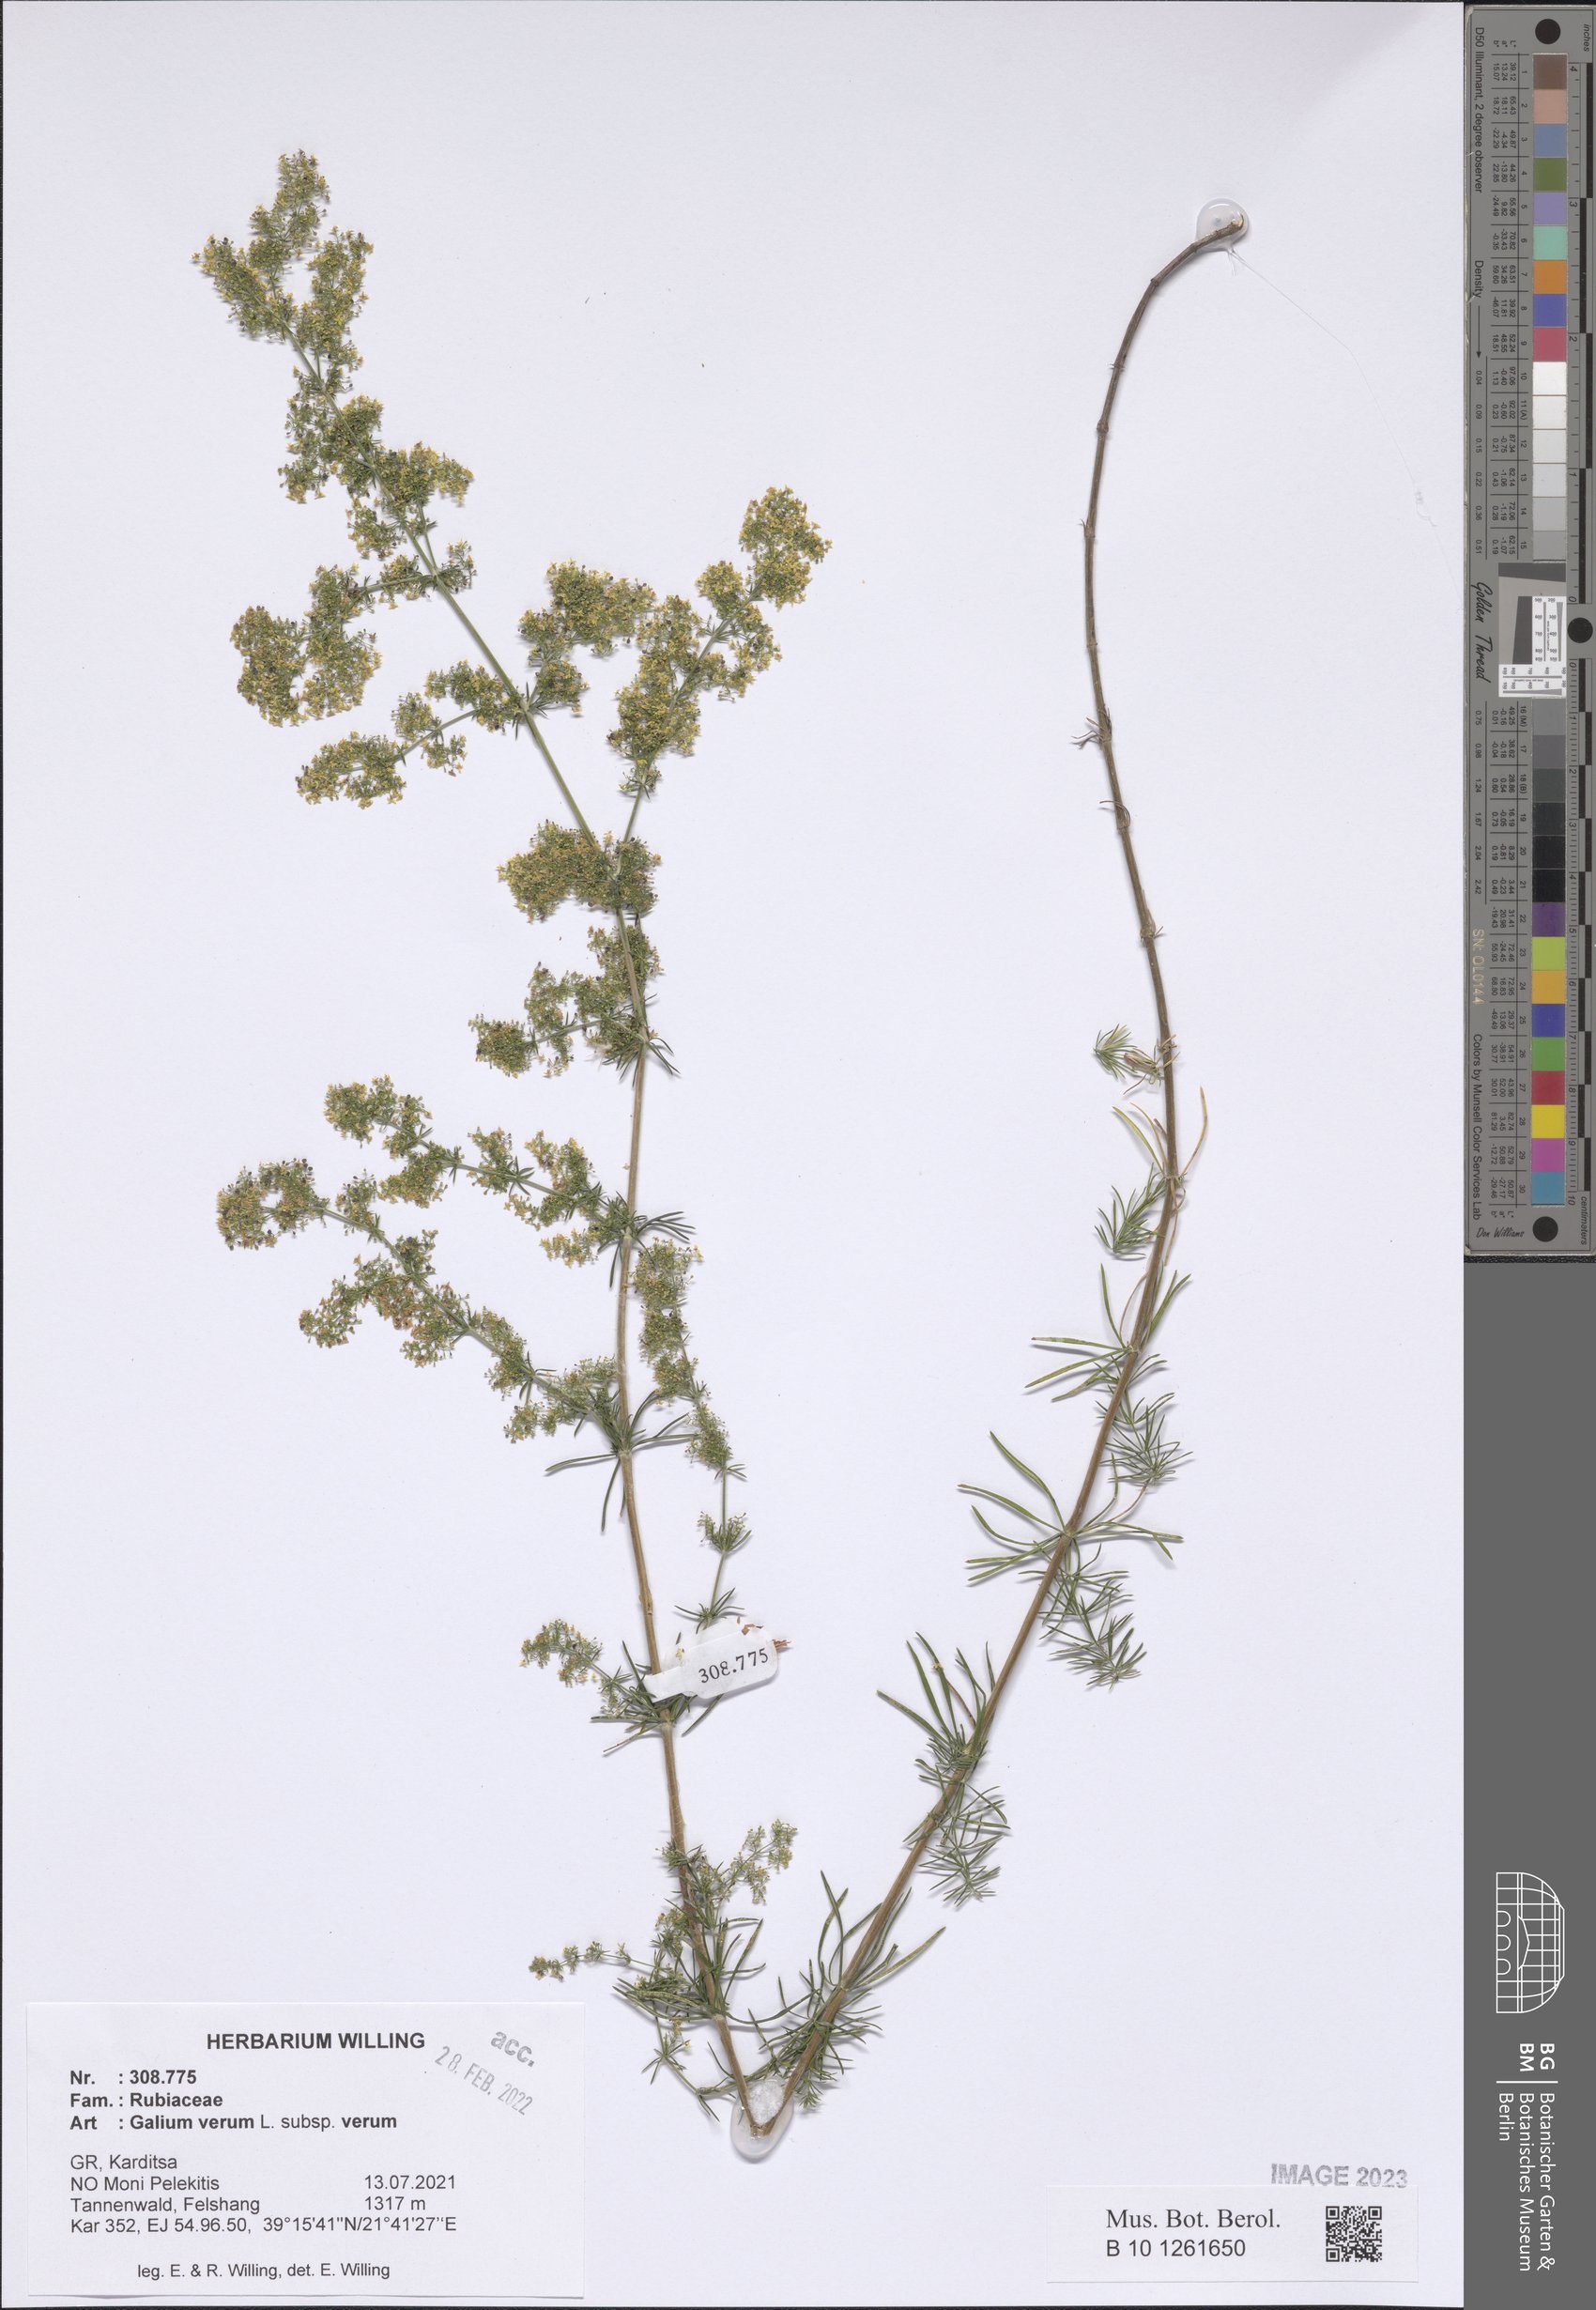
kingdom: Plantae
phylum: Tracheophyta
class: Magnoliopsida
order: Gentianales
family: Rubiaceae
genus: Galium
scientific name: Galium verum
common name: Lady's bedstraw
